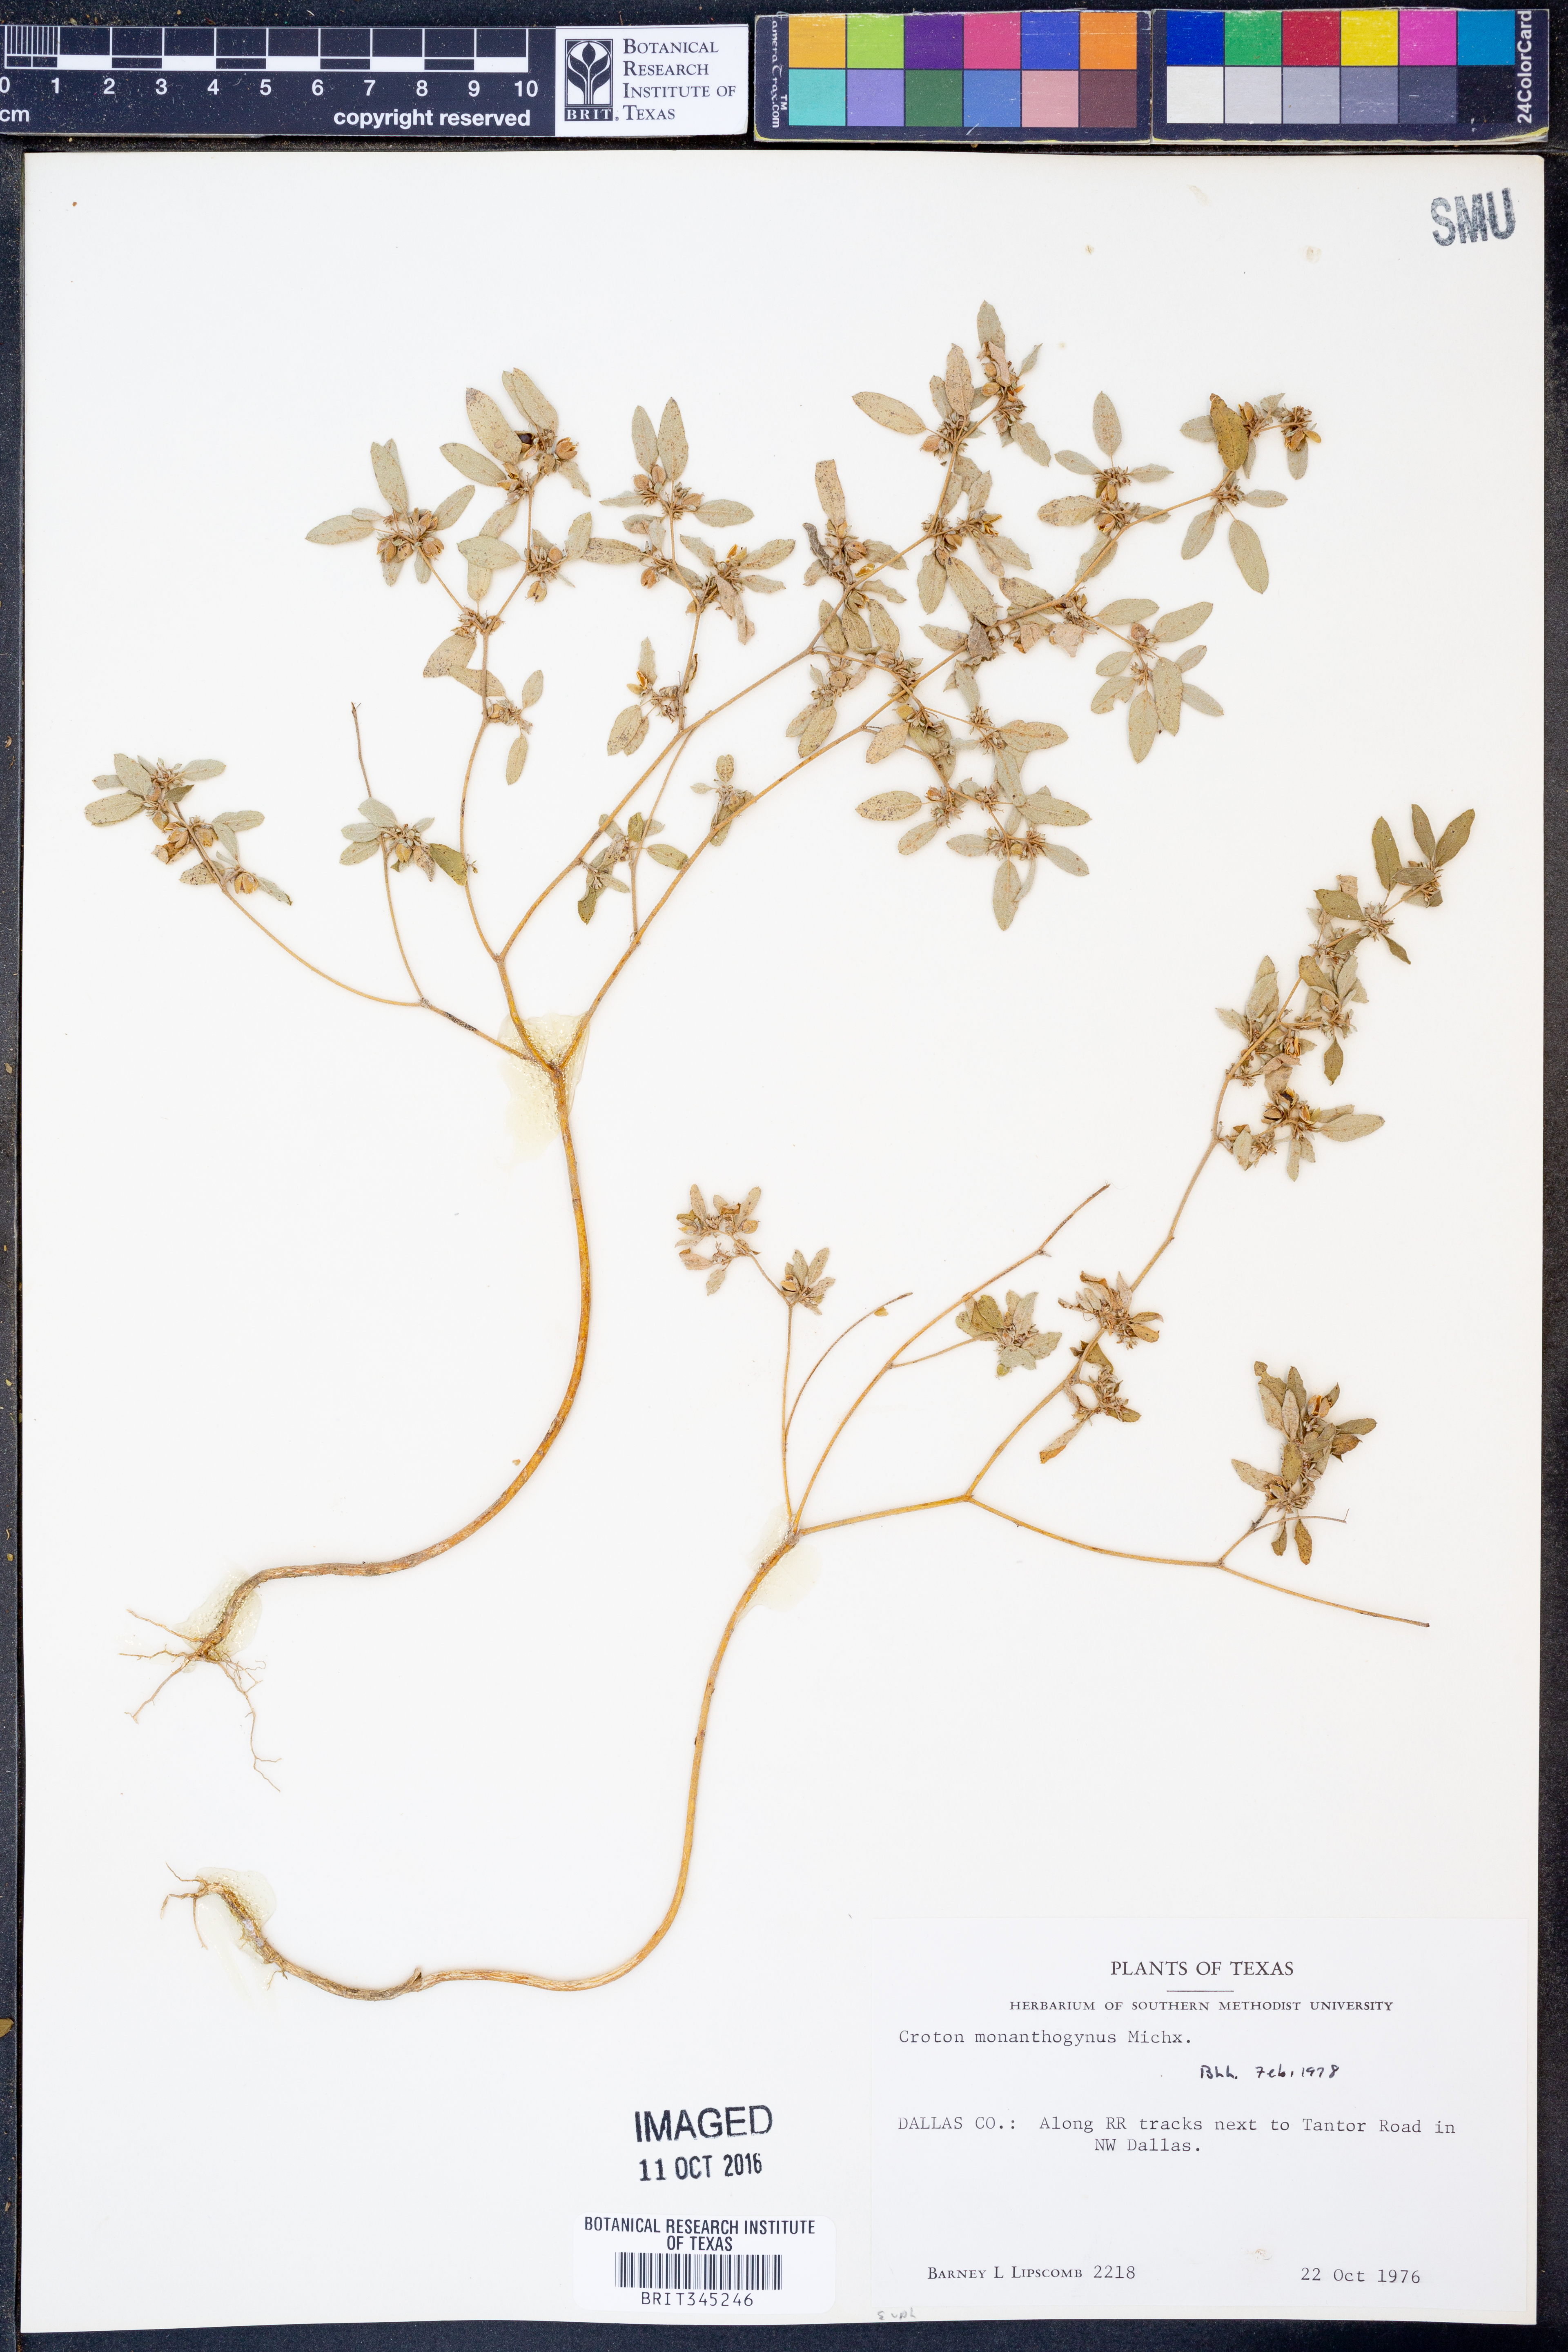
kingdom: Plantae
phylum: Tracheophyta
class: Magnoliopsida
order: Malpighiales
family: Euphorbiaceae
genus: Croton
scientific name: Croton monanthogynus
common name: One-seed croton
